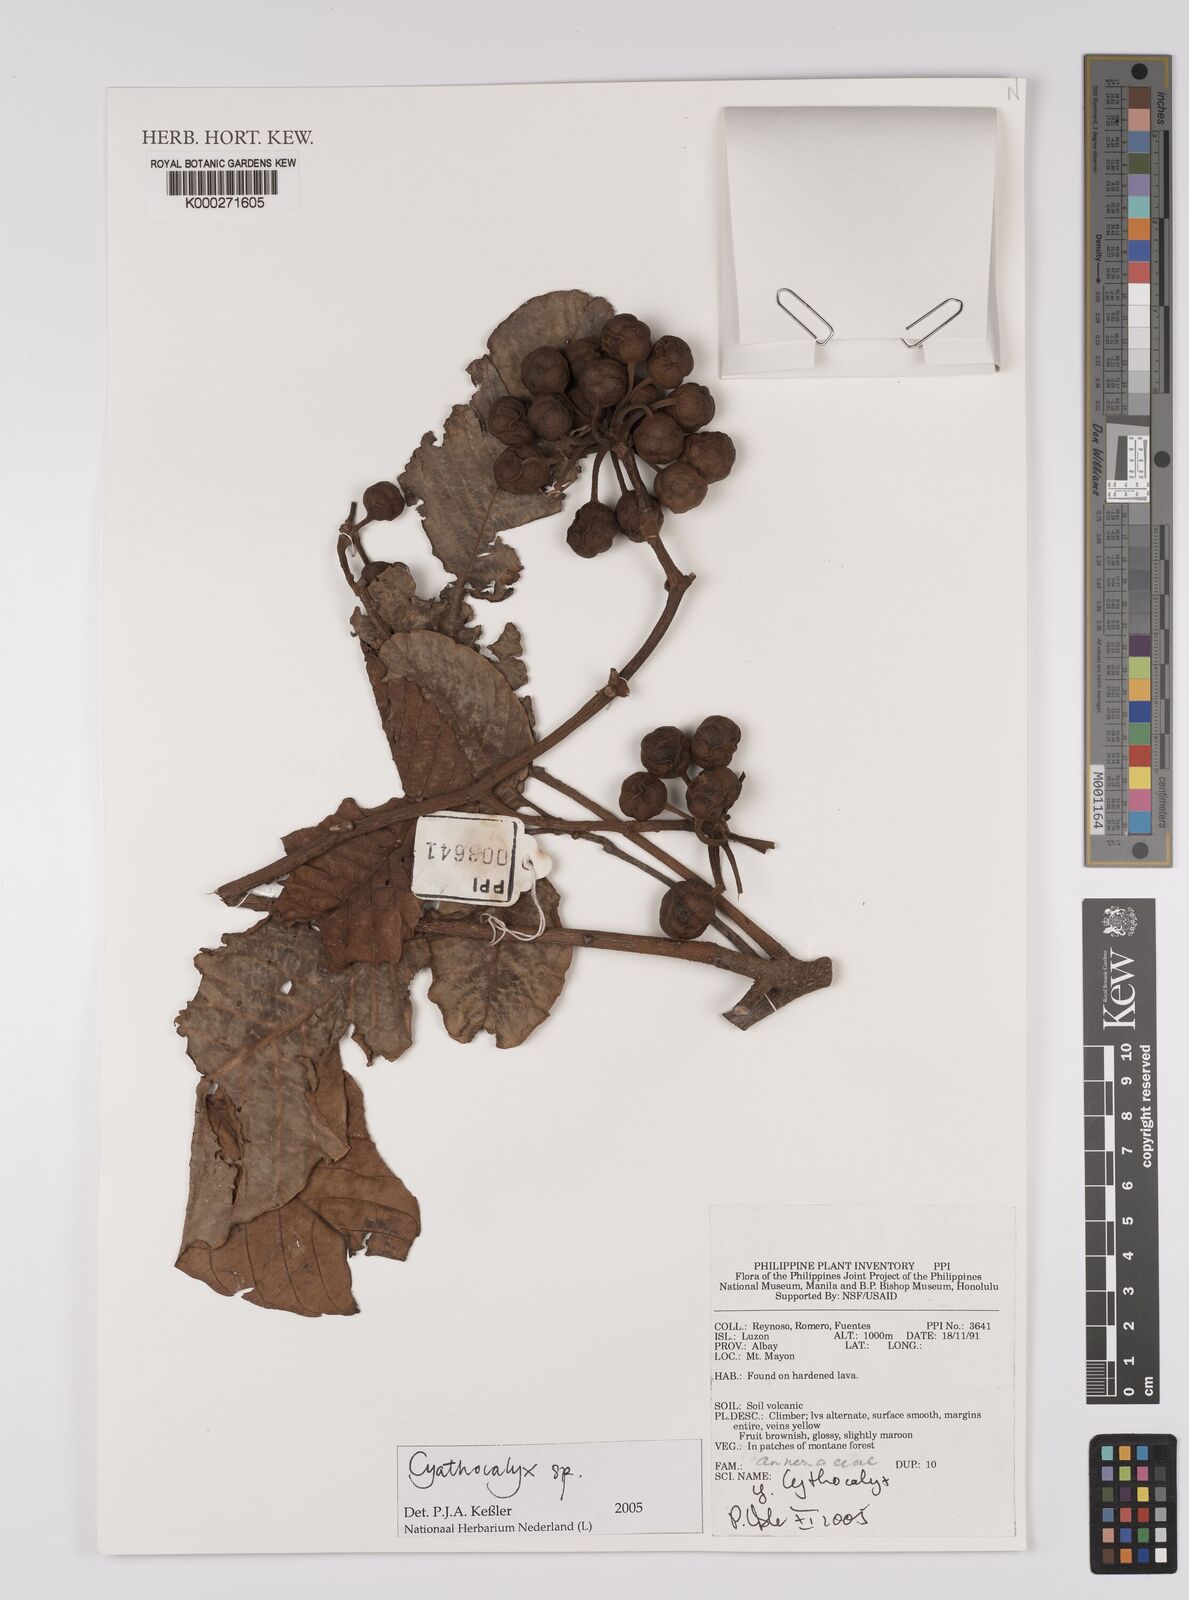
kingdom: Plantae
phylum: Tracheophyta
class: Magnoliopsida
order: Magnoliales
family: Annonaceae
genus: Cyathocalyx
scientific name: Cyathocalyx
